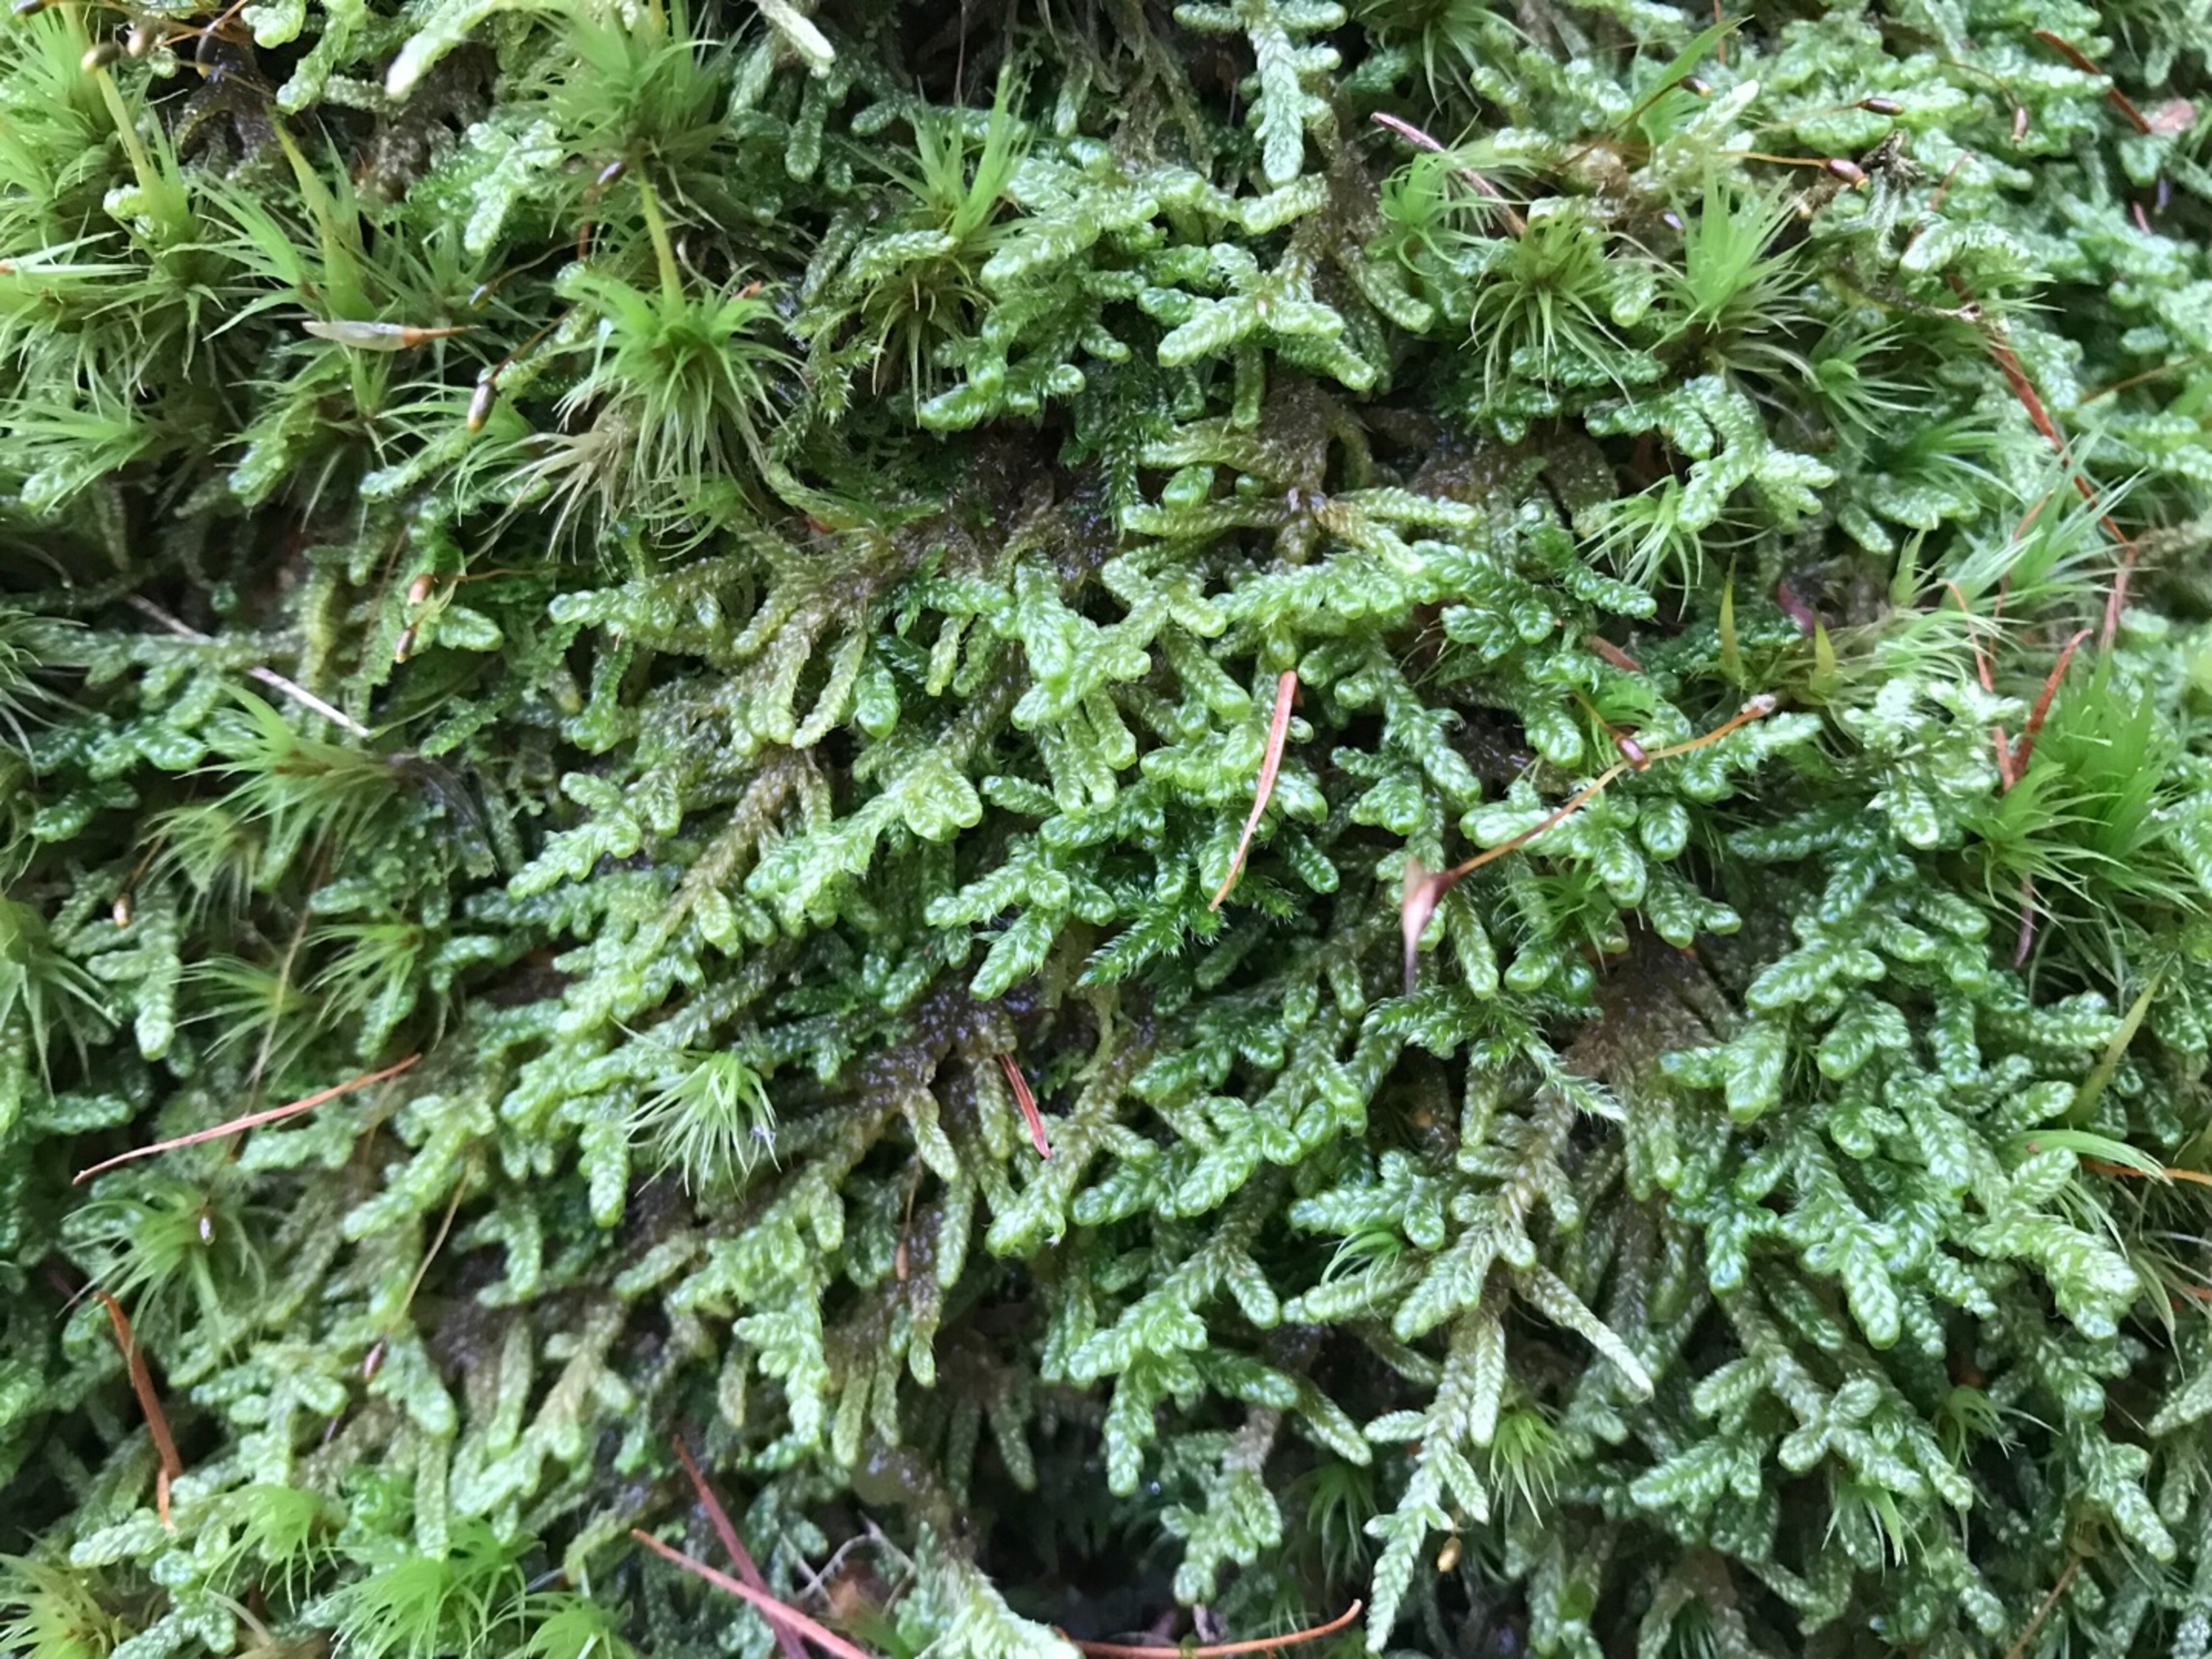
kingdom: Plantae
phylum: Bryophyta
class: Bryopsida
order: Hypnales
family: Hypnaceae
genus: Hypnum
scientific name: Hypnum andoi
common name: Vortet cypresmos
